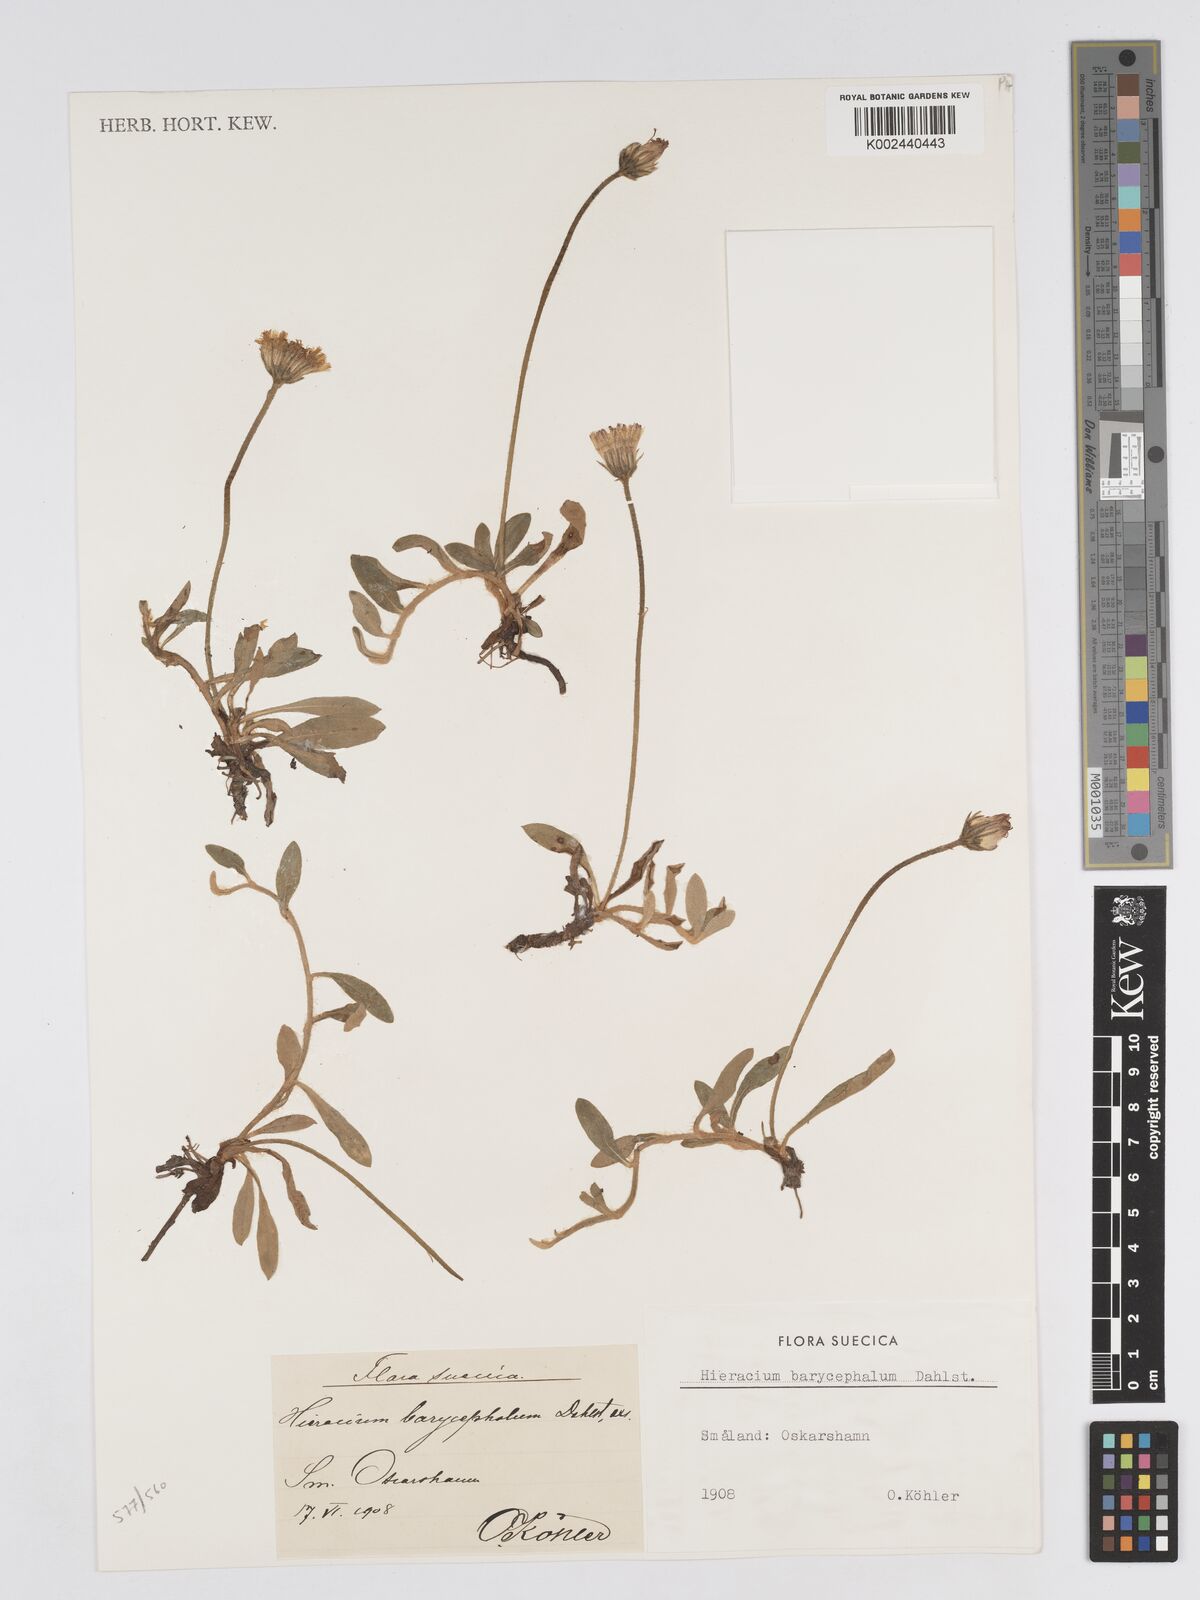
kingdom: Plantae
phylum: Tracheophyta
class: Magnoliopsida
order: Asterales
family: Asteraceae
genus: Hieracium
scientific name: Hieracium
